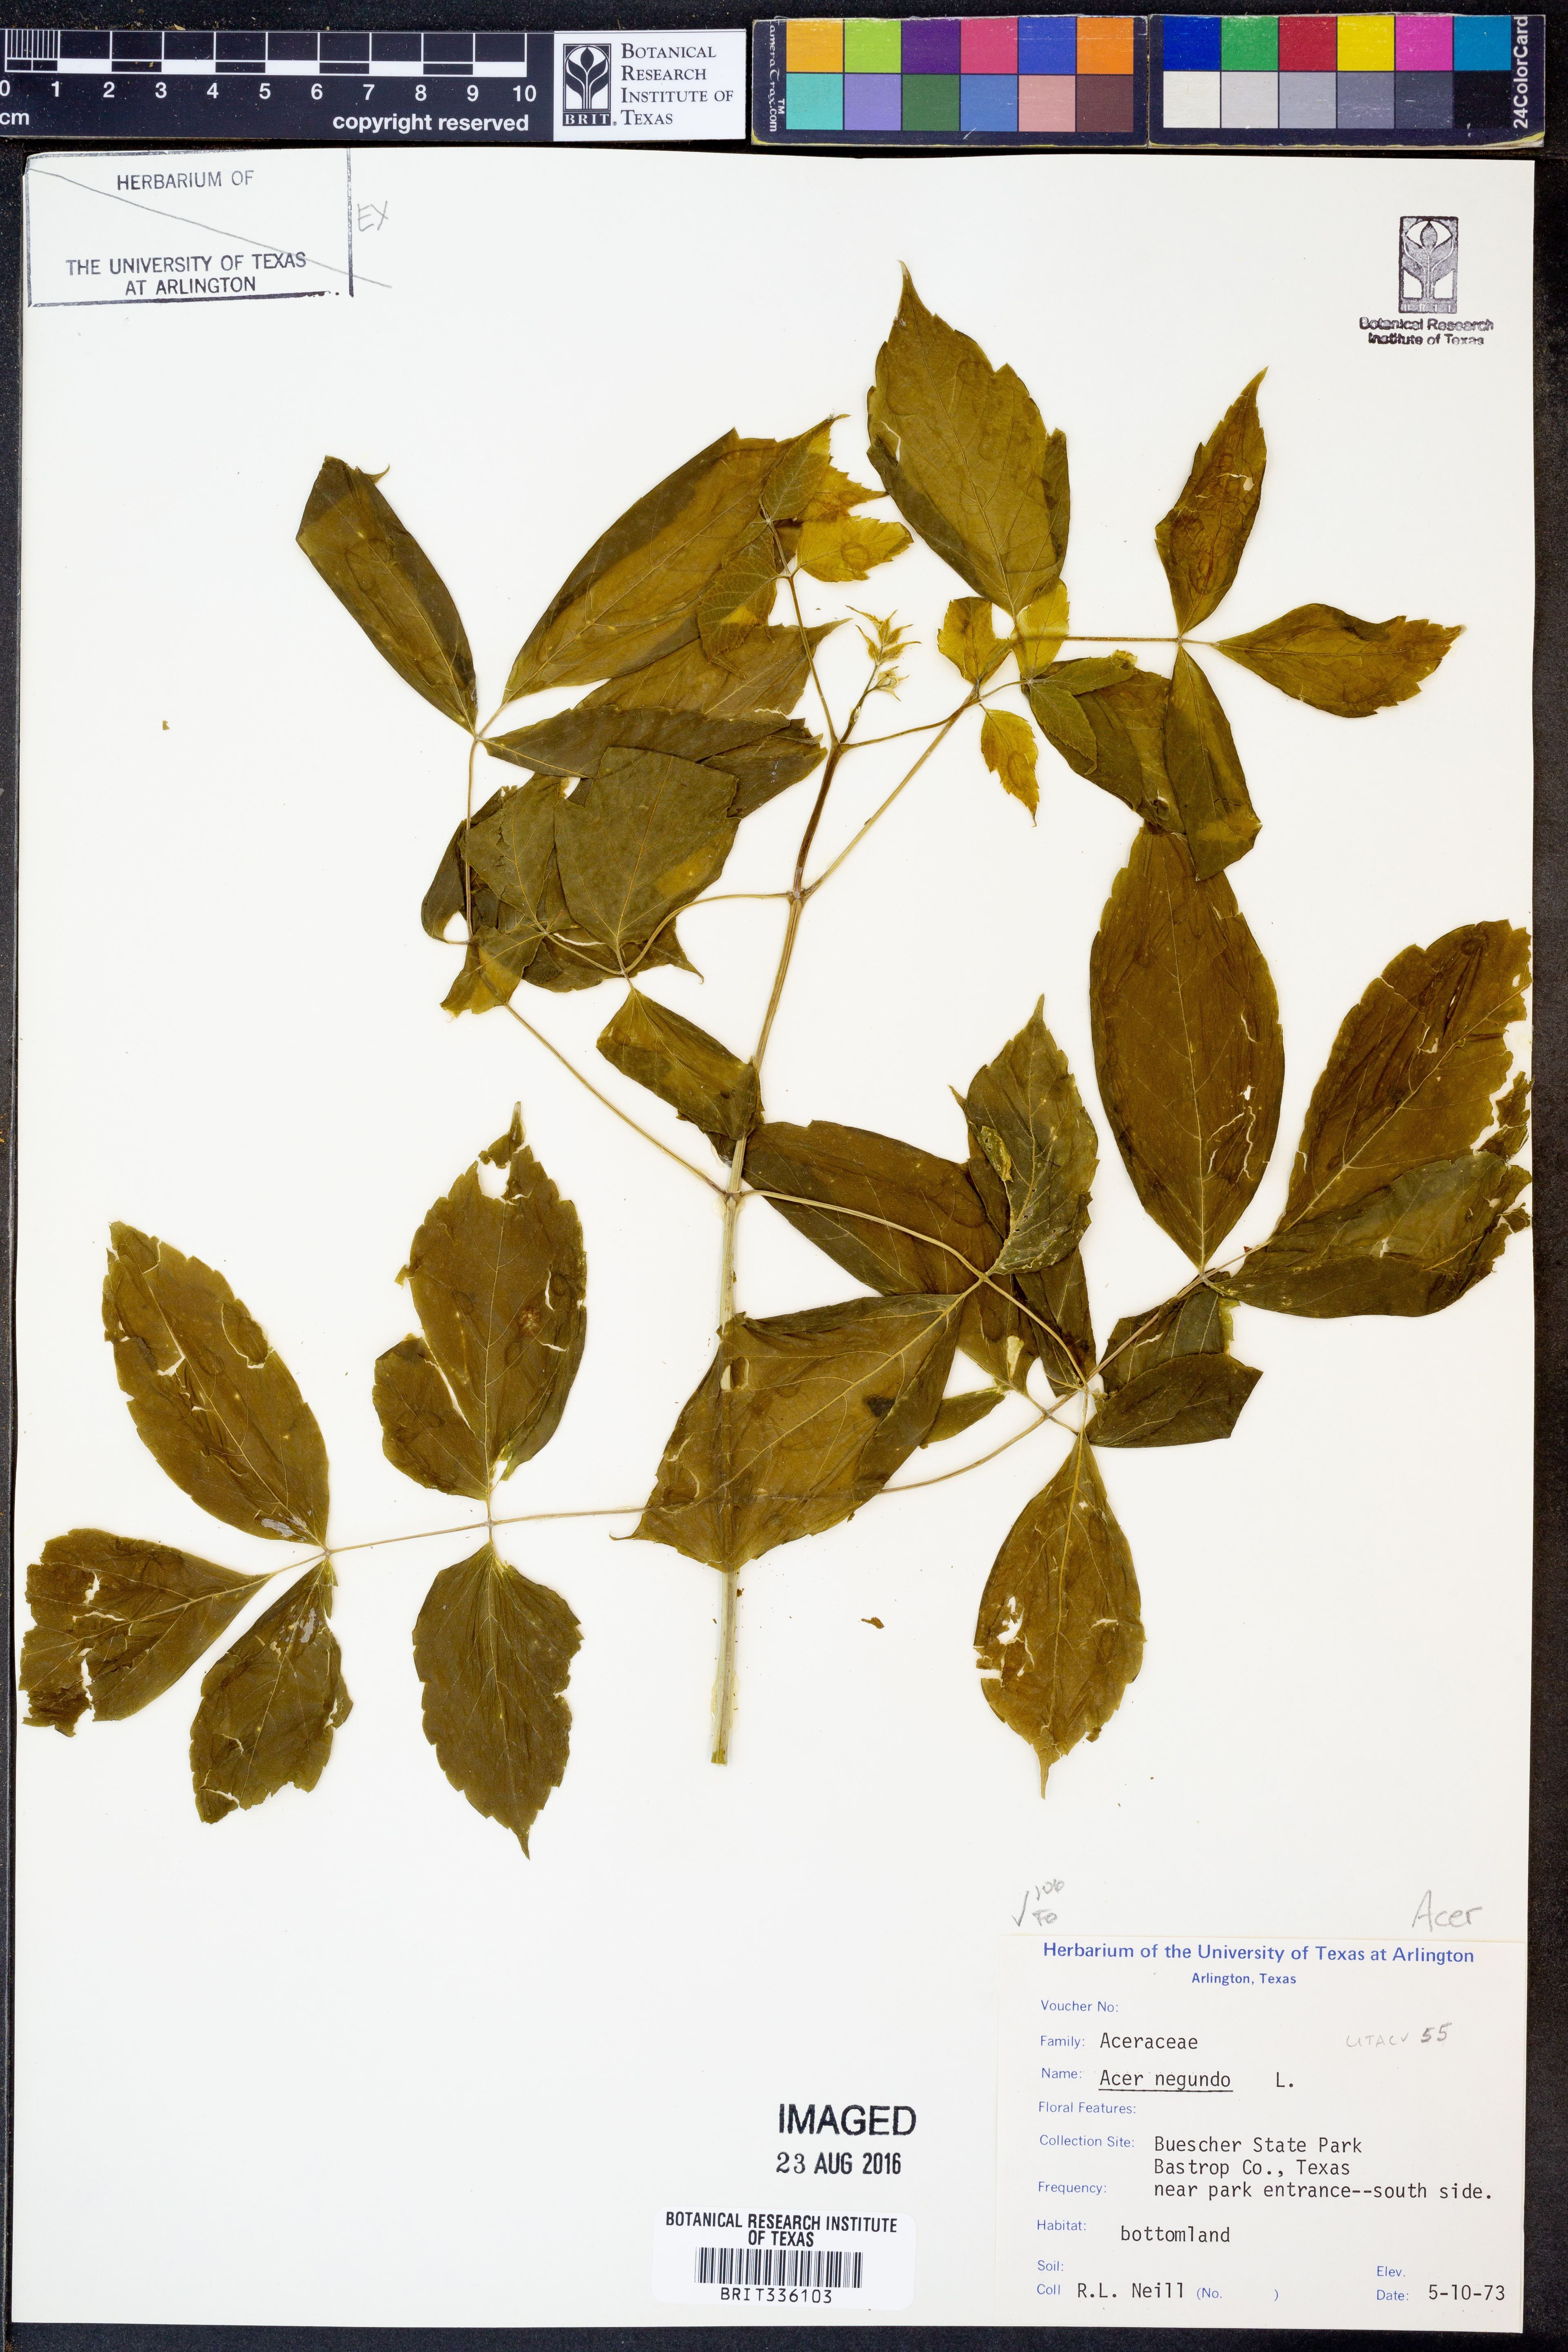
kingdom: Plantae
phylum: Tracheophyta
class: Magnoliopsida
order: Sapindales
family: Sapindaceae
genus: Acer
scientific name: Acer negundo
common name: Ashleaf maple
